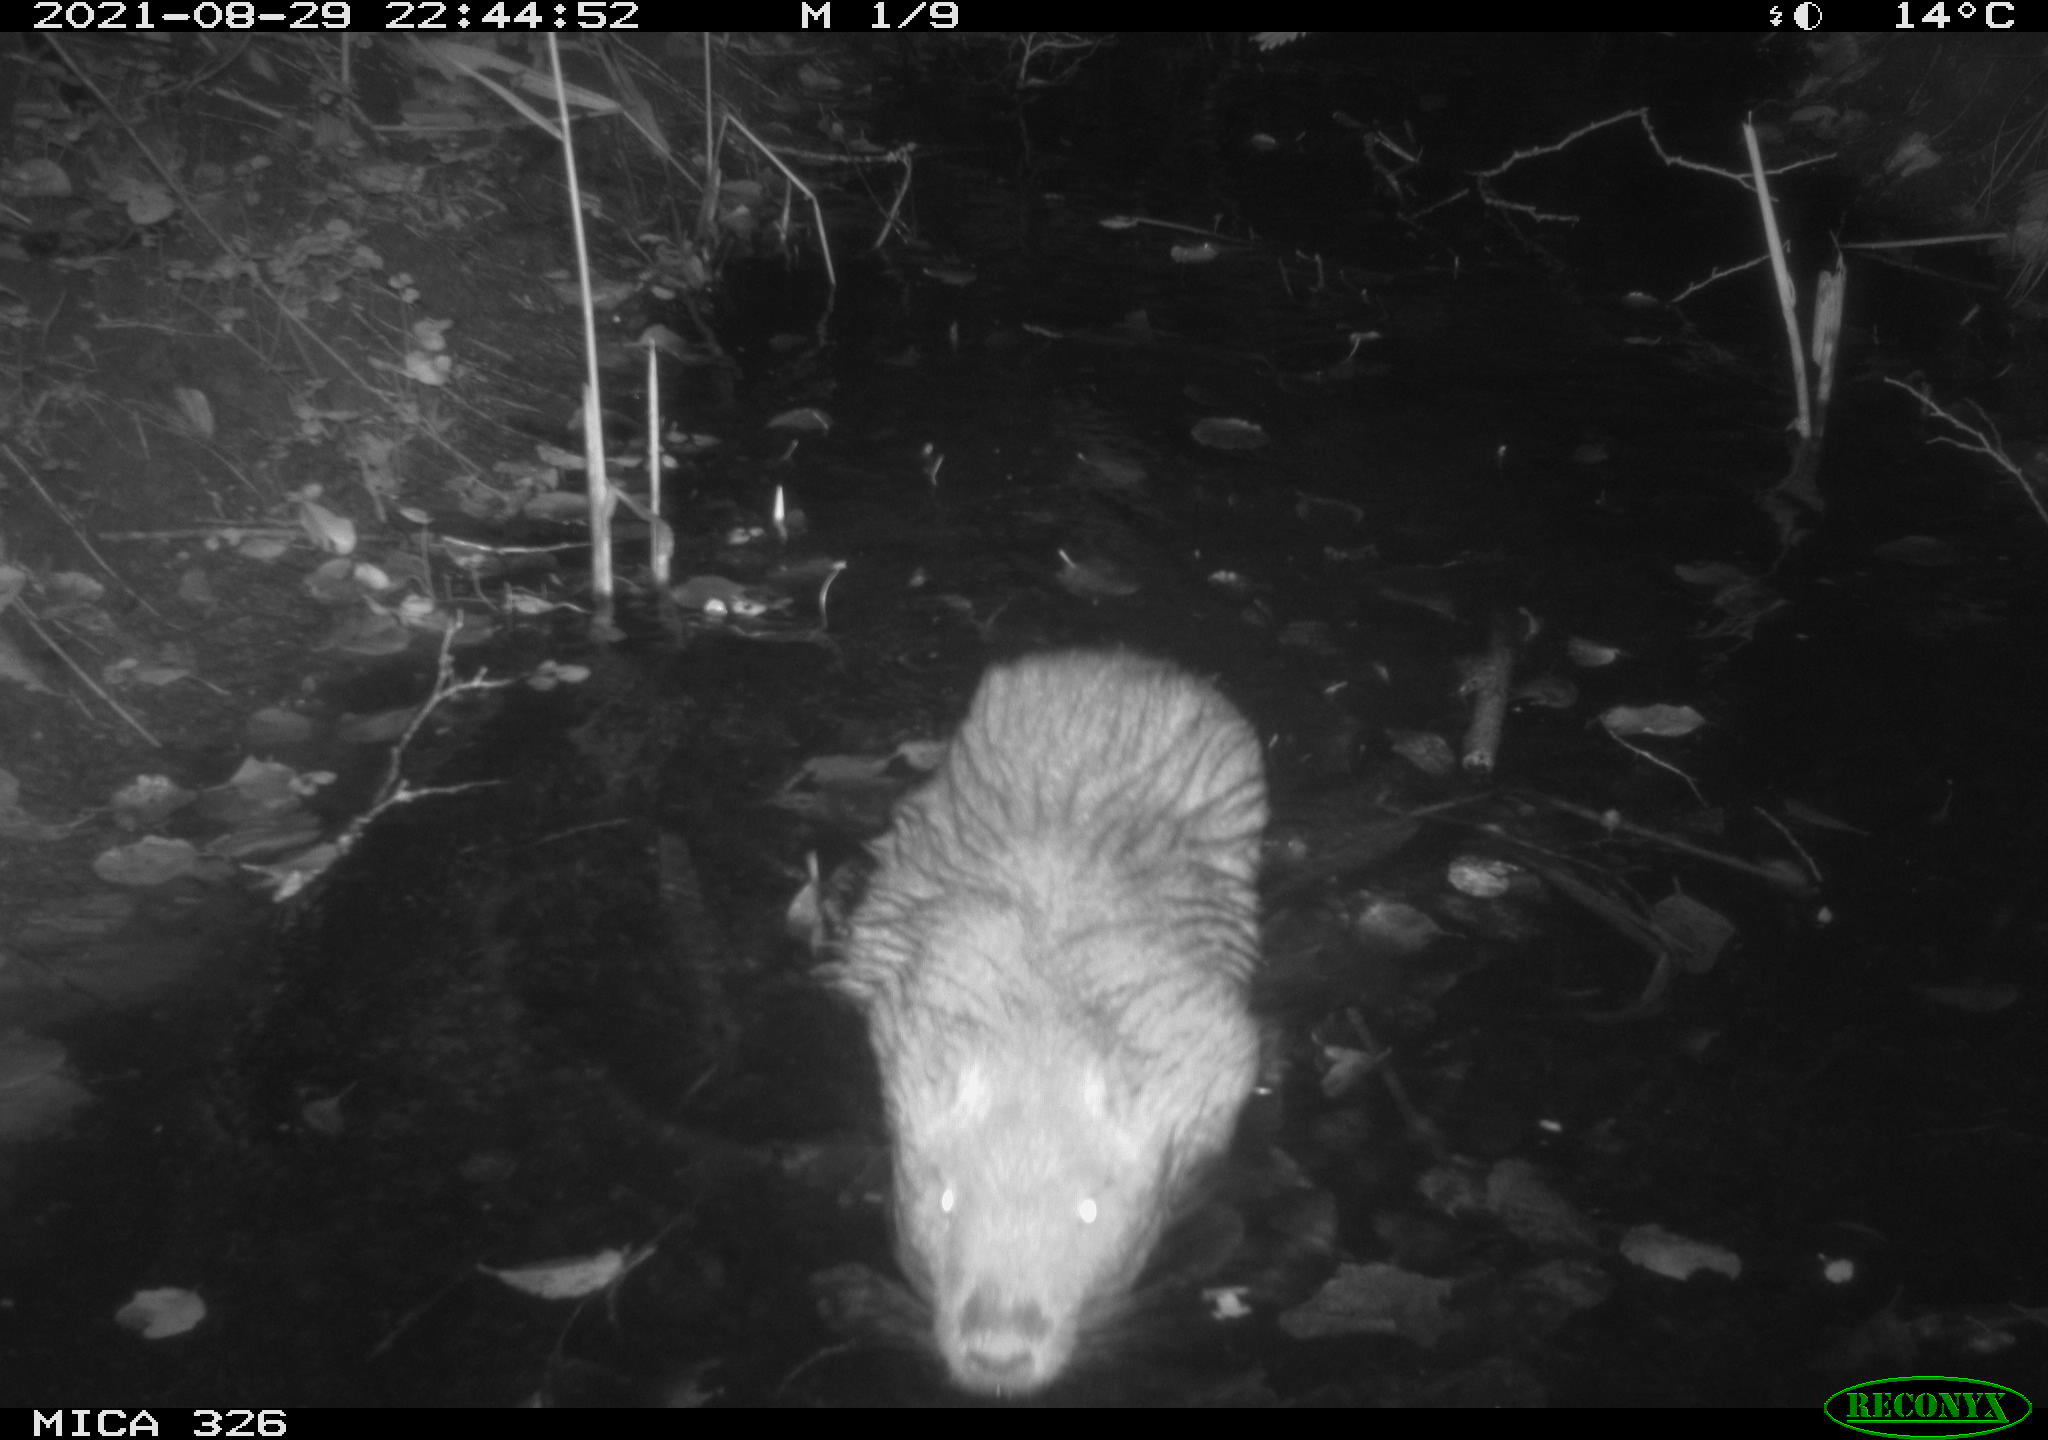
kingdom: Animalia
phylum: Chordata
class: Mammalia
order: Rodentia
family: Myocastoridae
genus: Myocastor
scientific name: Myocastor coypus
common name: Coypu
